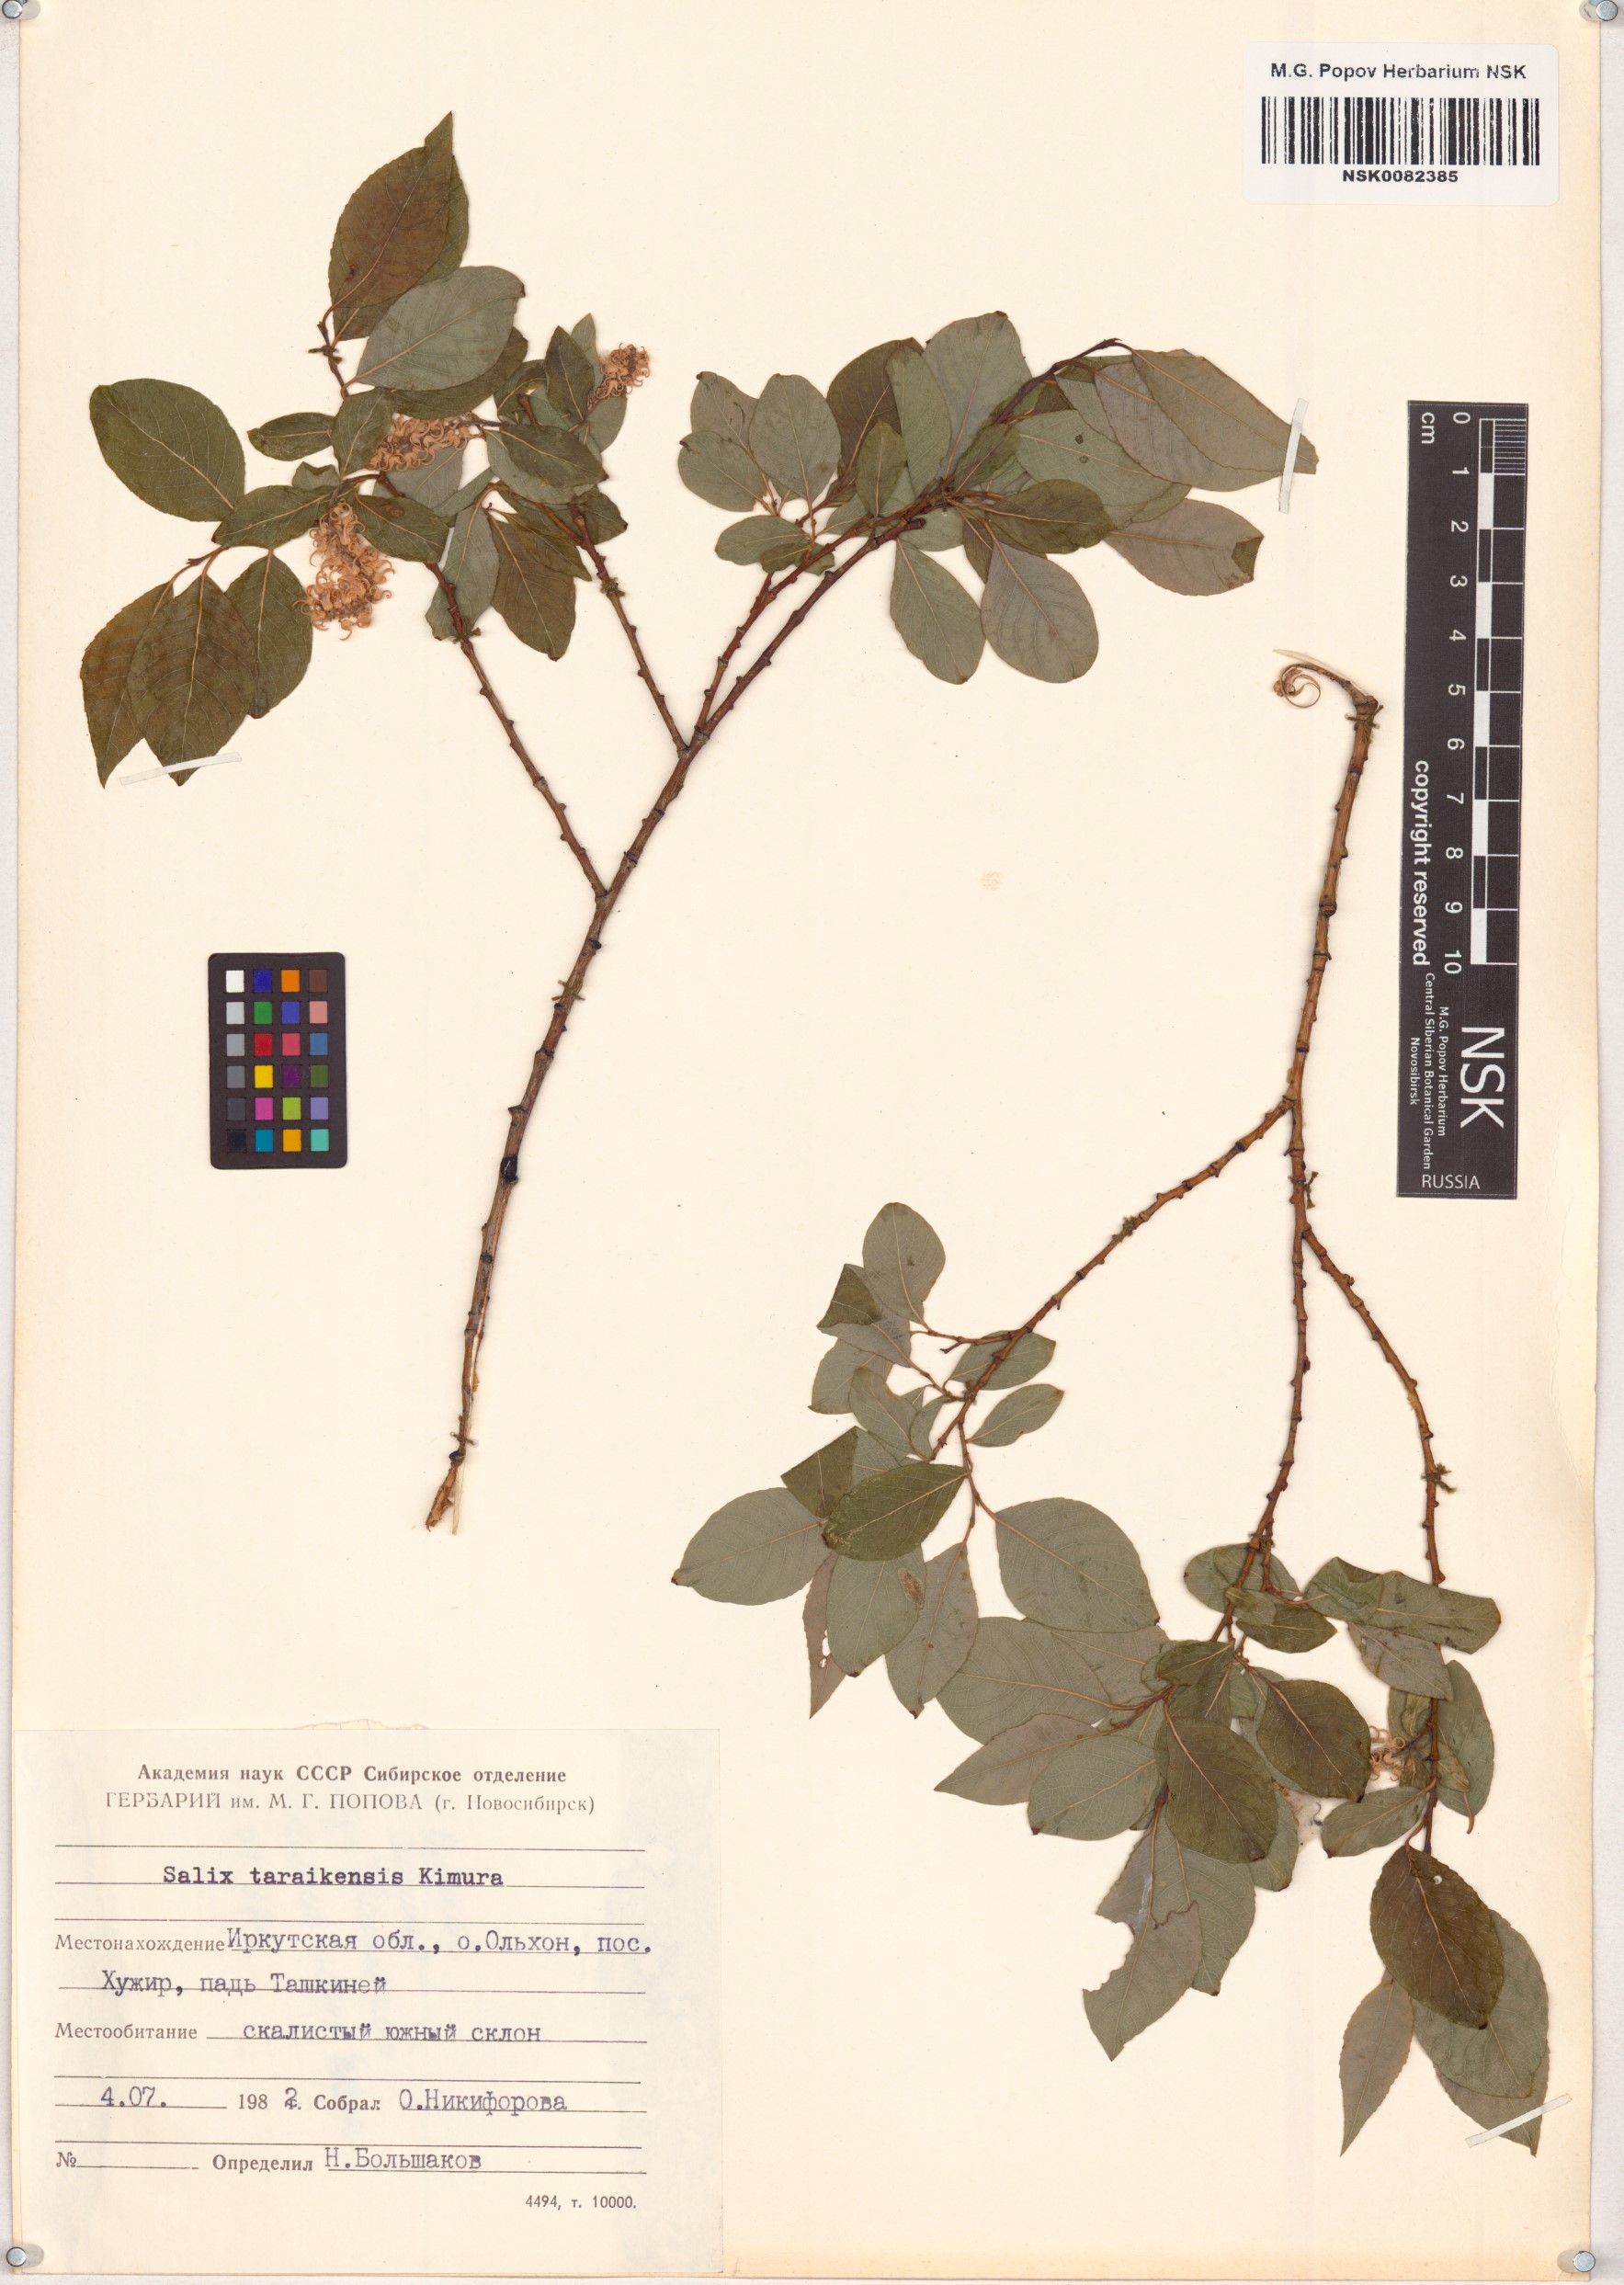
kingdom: Plantae
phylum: Tracheophyta
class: Magnoliopsida
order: Malpighiales
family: Salicaceae
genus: Salix
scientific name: Salix taraikensis
